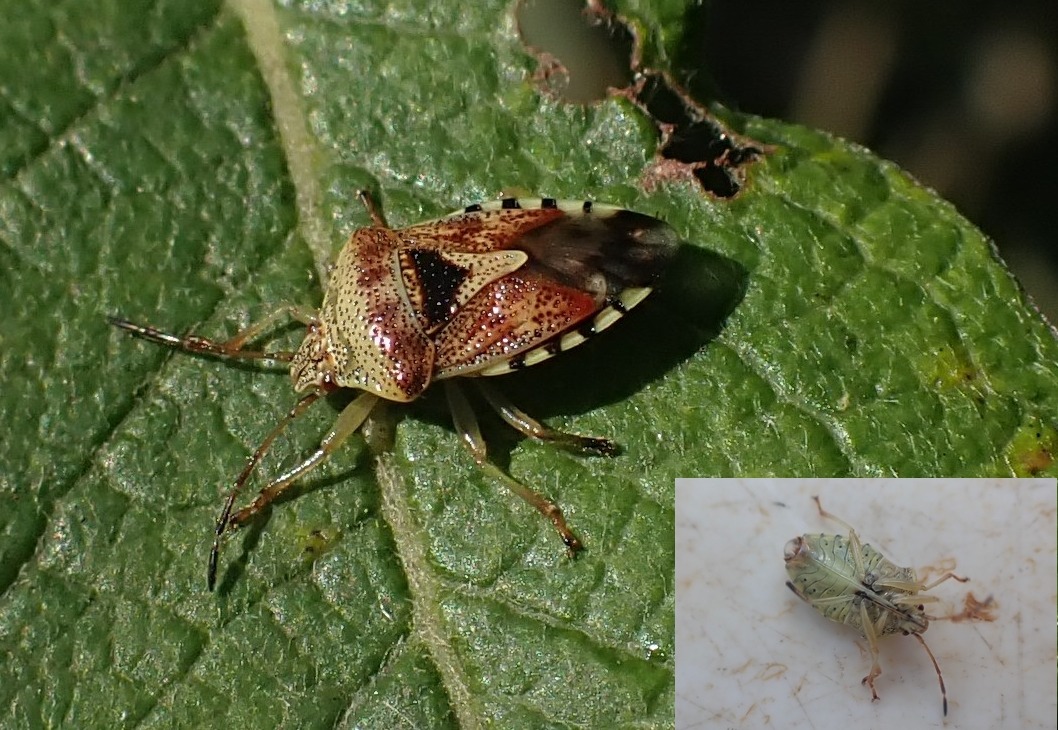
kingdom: Animalia
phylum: Arthropoda
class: Insecta
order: Hemiptera
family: Acanthosomatidae
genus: Elasmucha
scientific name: Elasmucha grisea
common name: Almindelig birketæge
